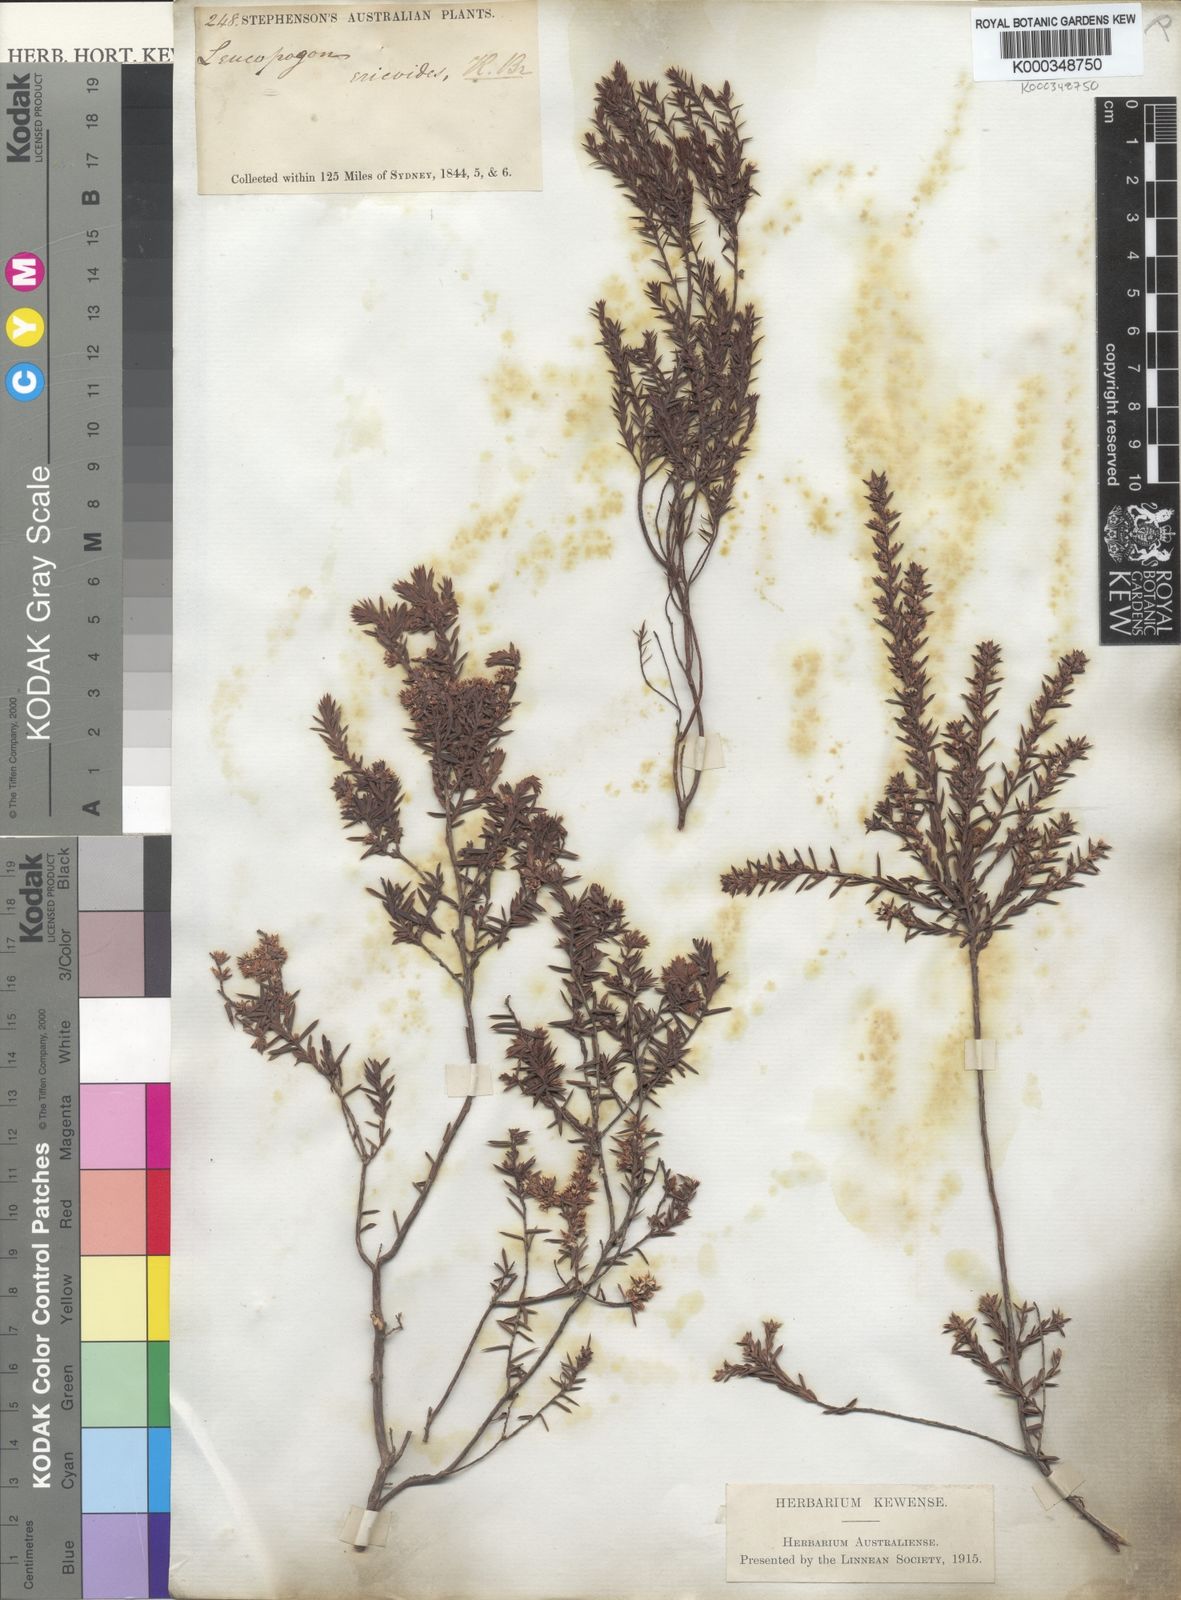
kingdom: Plantae
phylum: Tracheophyta
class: Magnoliopsida
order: Ericales
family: Ericaceae
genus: Styphelia
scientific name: Styphelia ericoides
